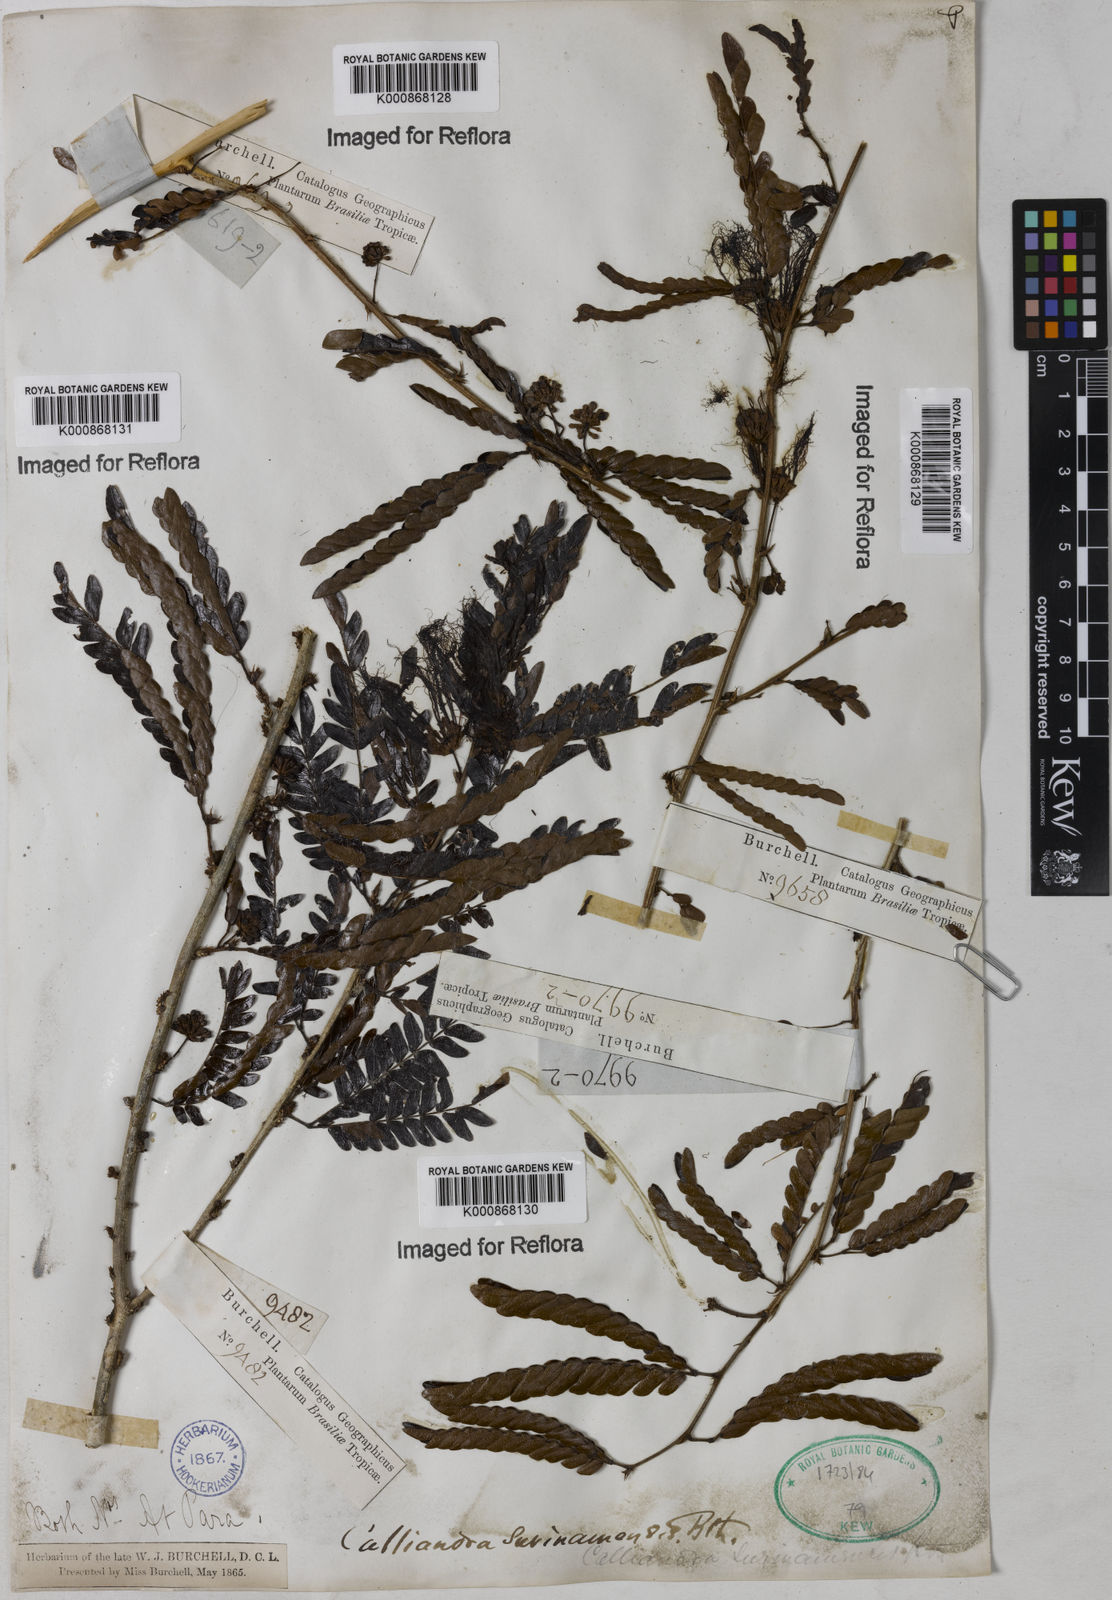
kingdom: Plantae
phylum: Tracheophyta
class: Magnoliopsida
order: Fabales
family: Fabaceae
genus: Calliandra
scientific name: Calliandra surinamensis
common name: Pink powder puff
